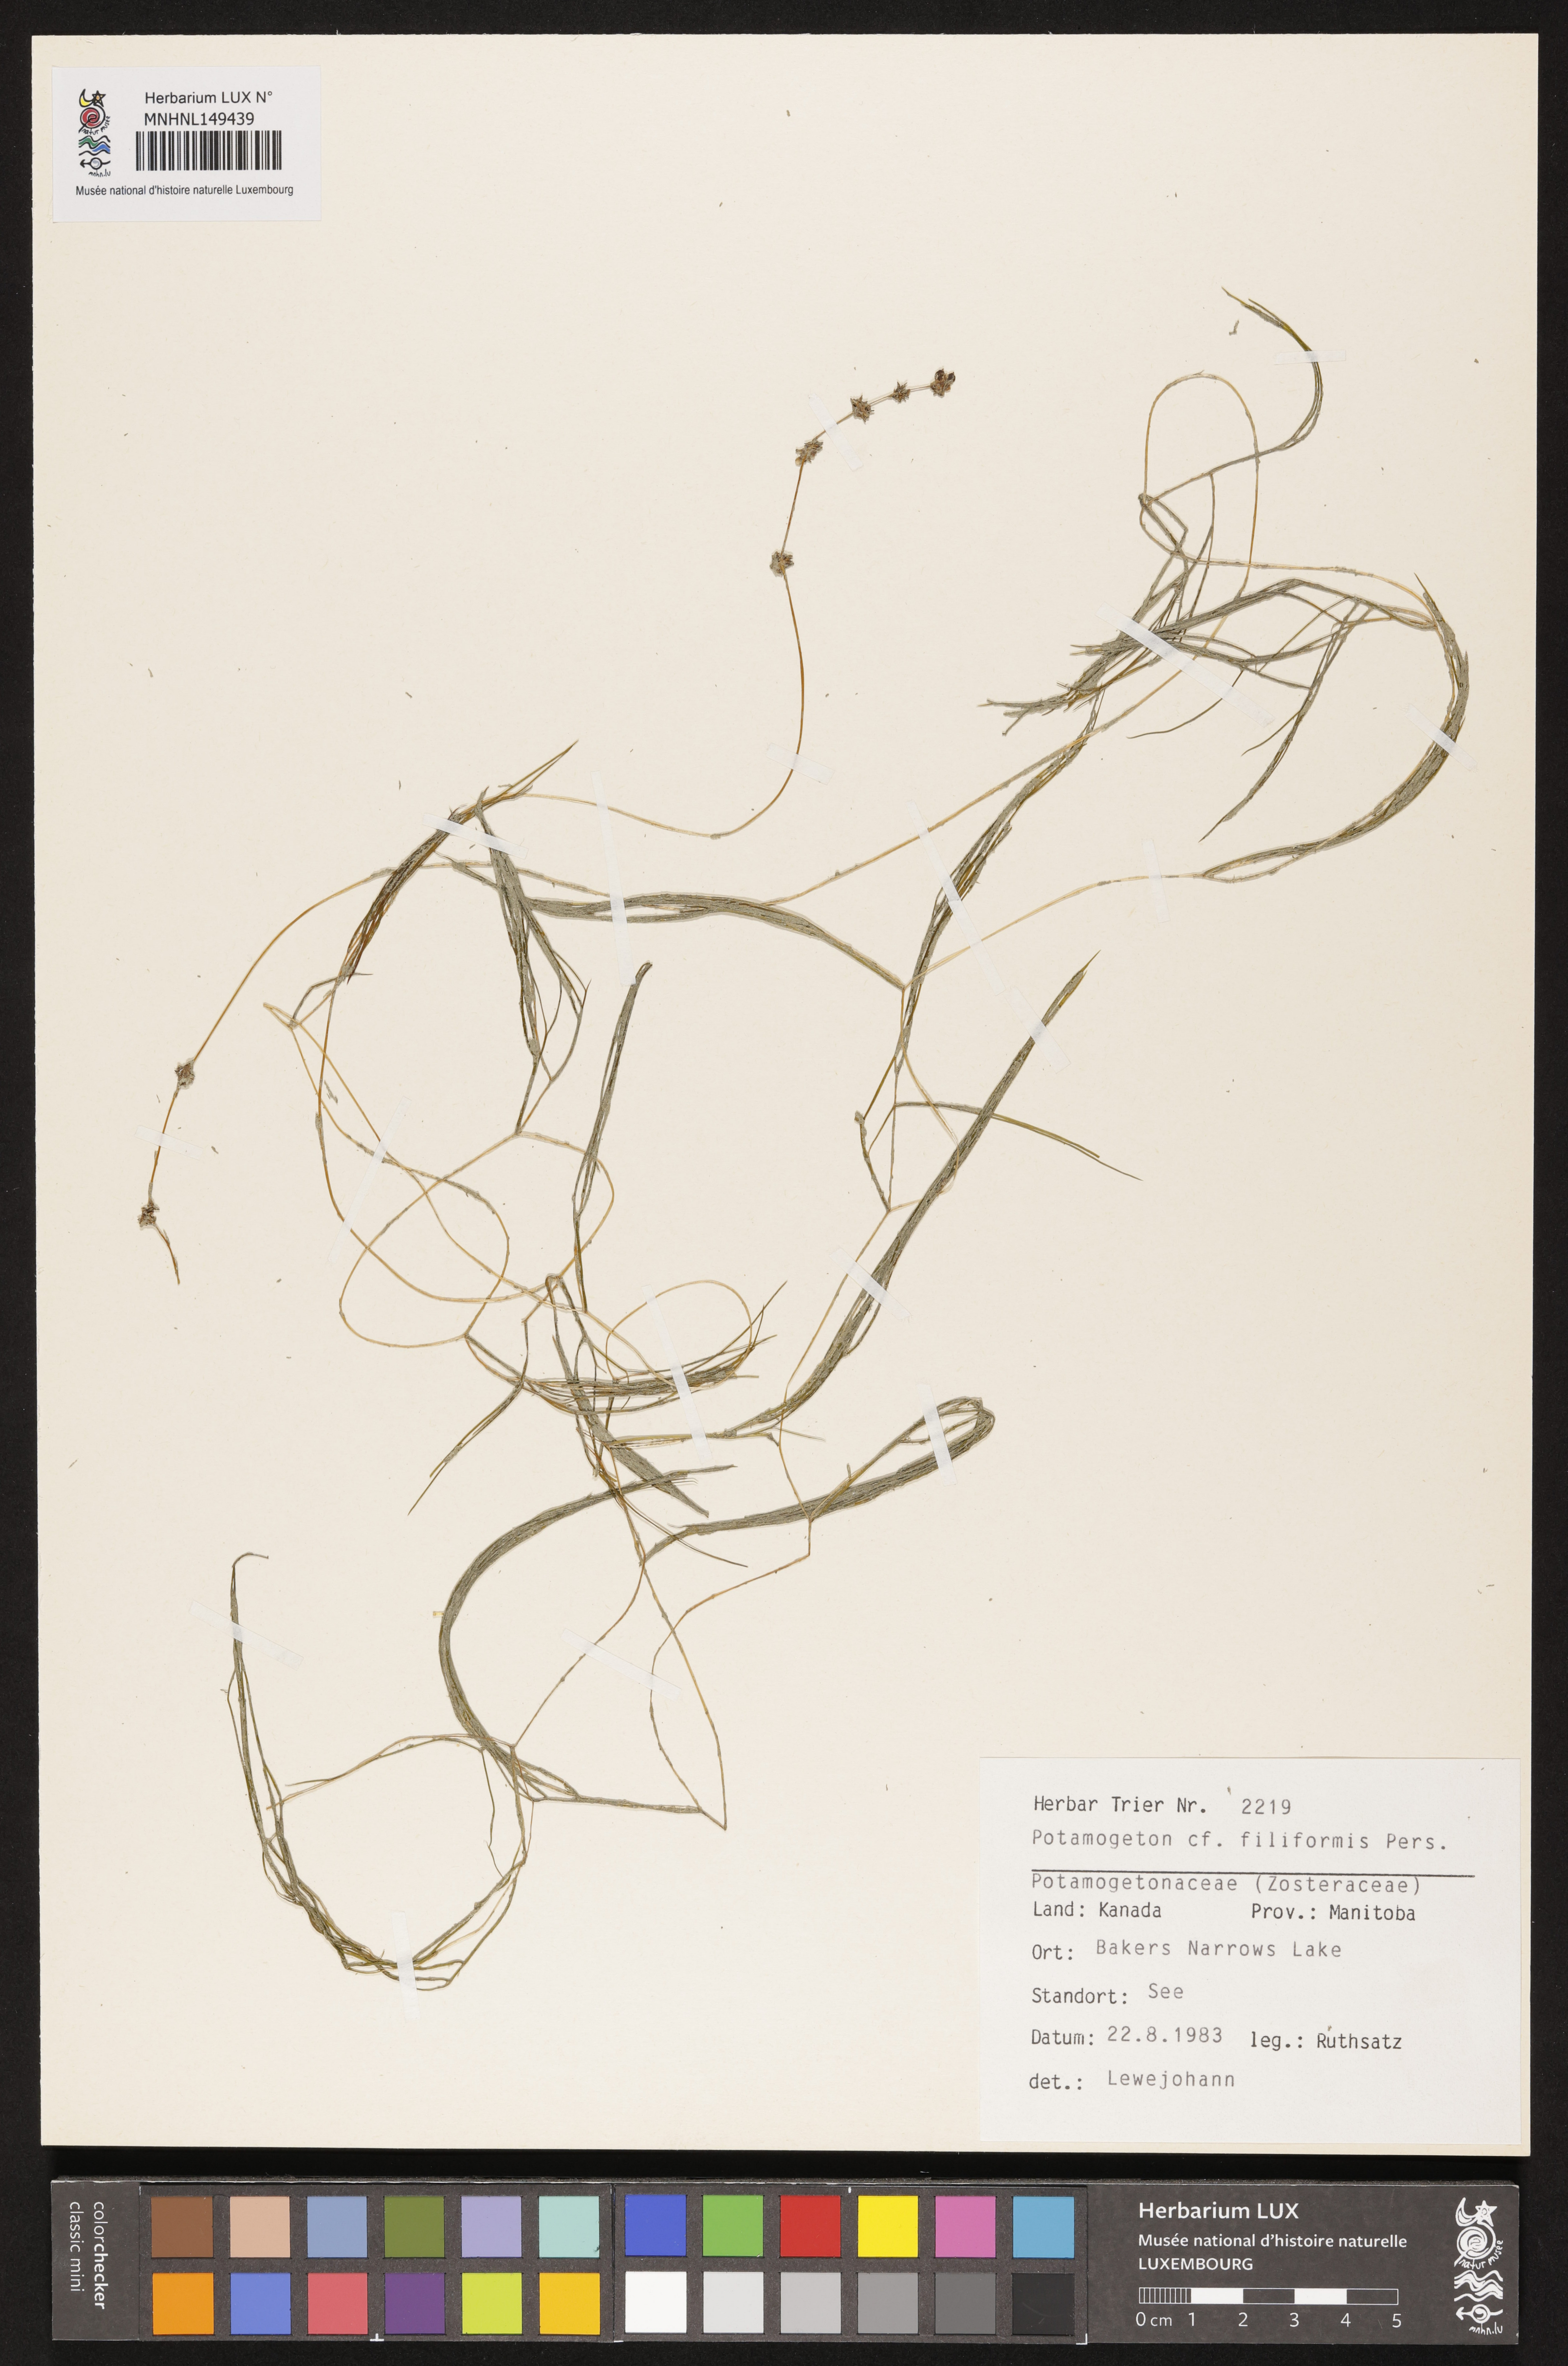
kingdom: Plantae
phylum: Tracheophyta
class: Liliopsida
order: Alismatales
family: Potamogetonaceae
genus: Potamogeton
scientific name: Potamogeton gramineus
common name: Various-leaved pondweed
